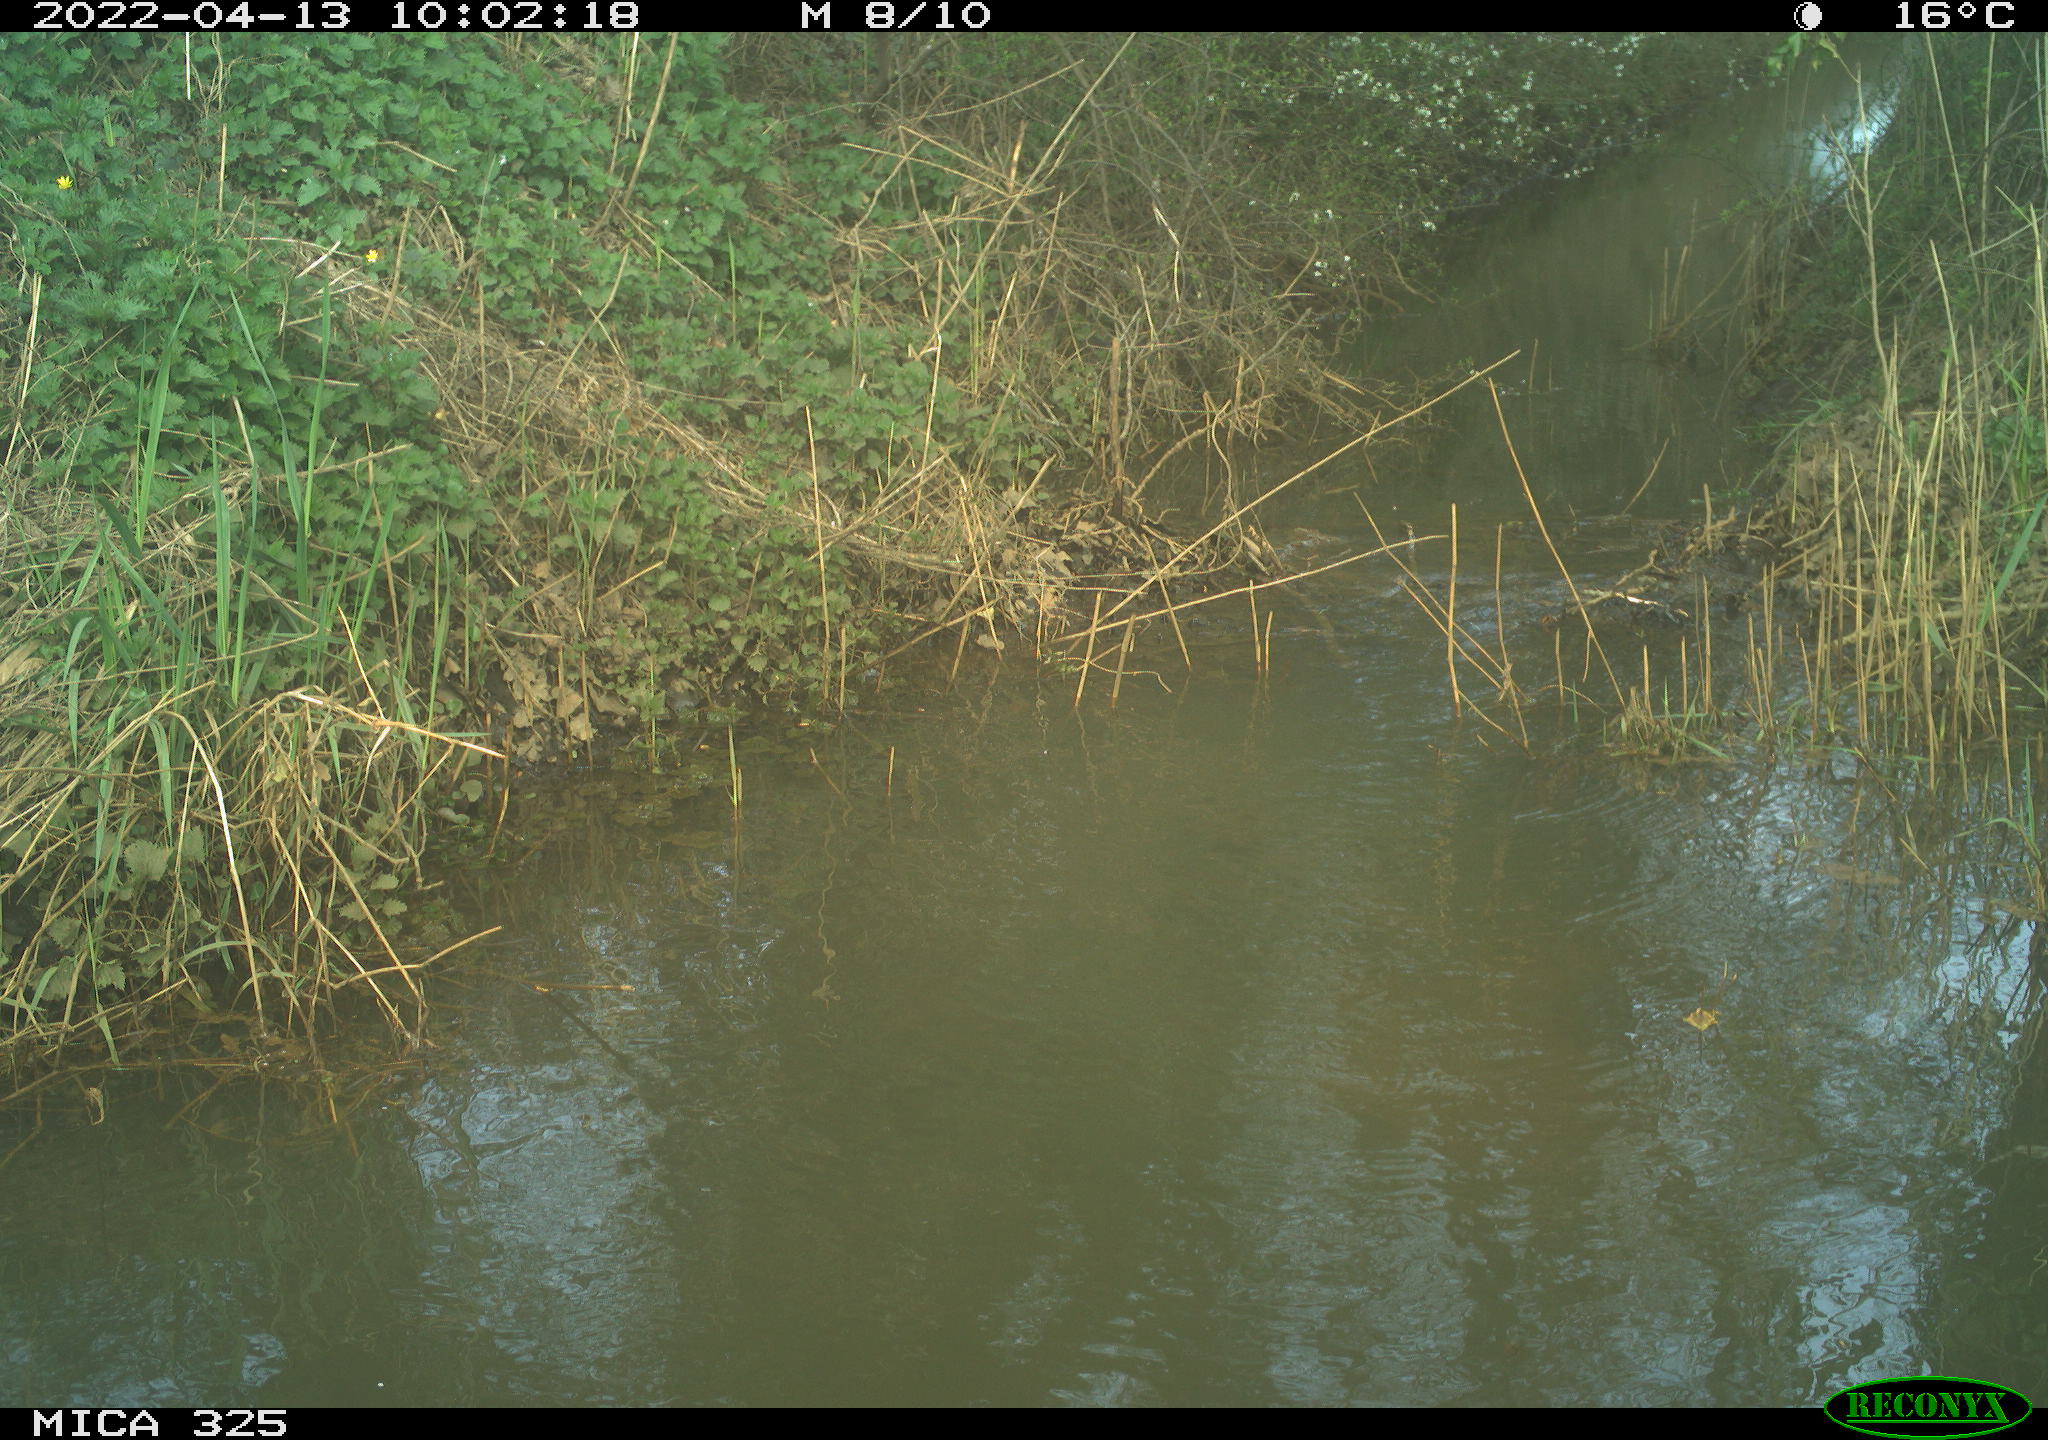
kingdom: Animalia
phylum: Chordata
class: Mammalia
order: Carnivora
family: Mustelidae
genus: Mustela
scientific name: Mustela erminea
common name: Stoat
